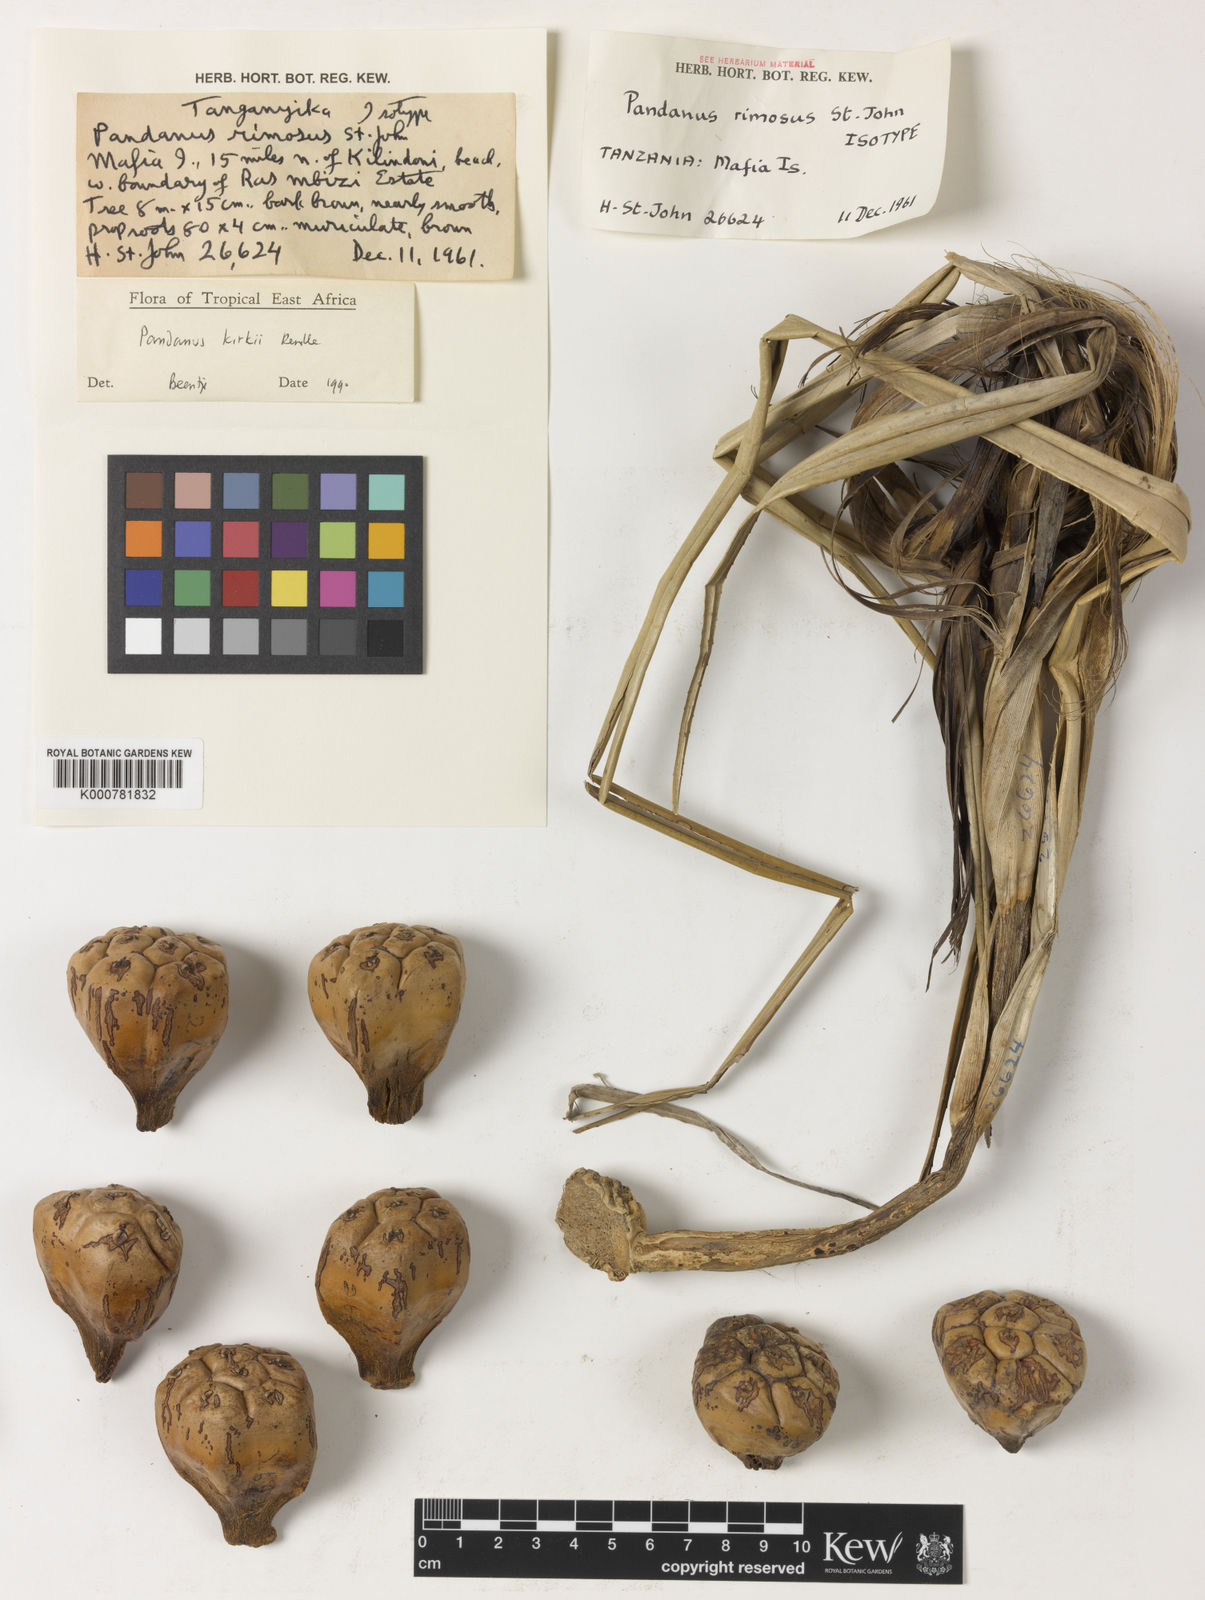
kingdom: Plantae
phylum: Tracheophyta
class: Liliopsida
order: Pandanales
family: Pandanaceae
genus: Pandanus
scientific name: Pandanus kirkii
